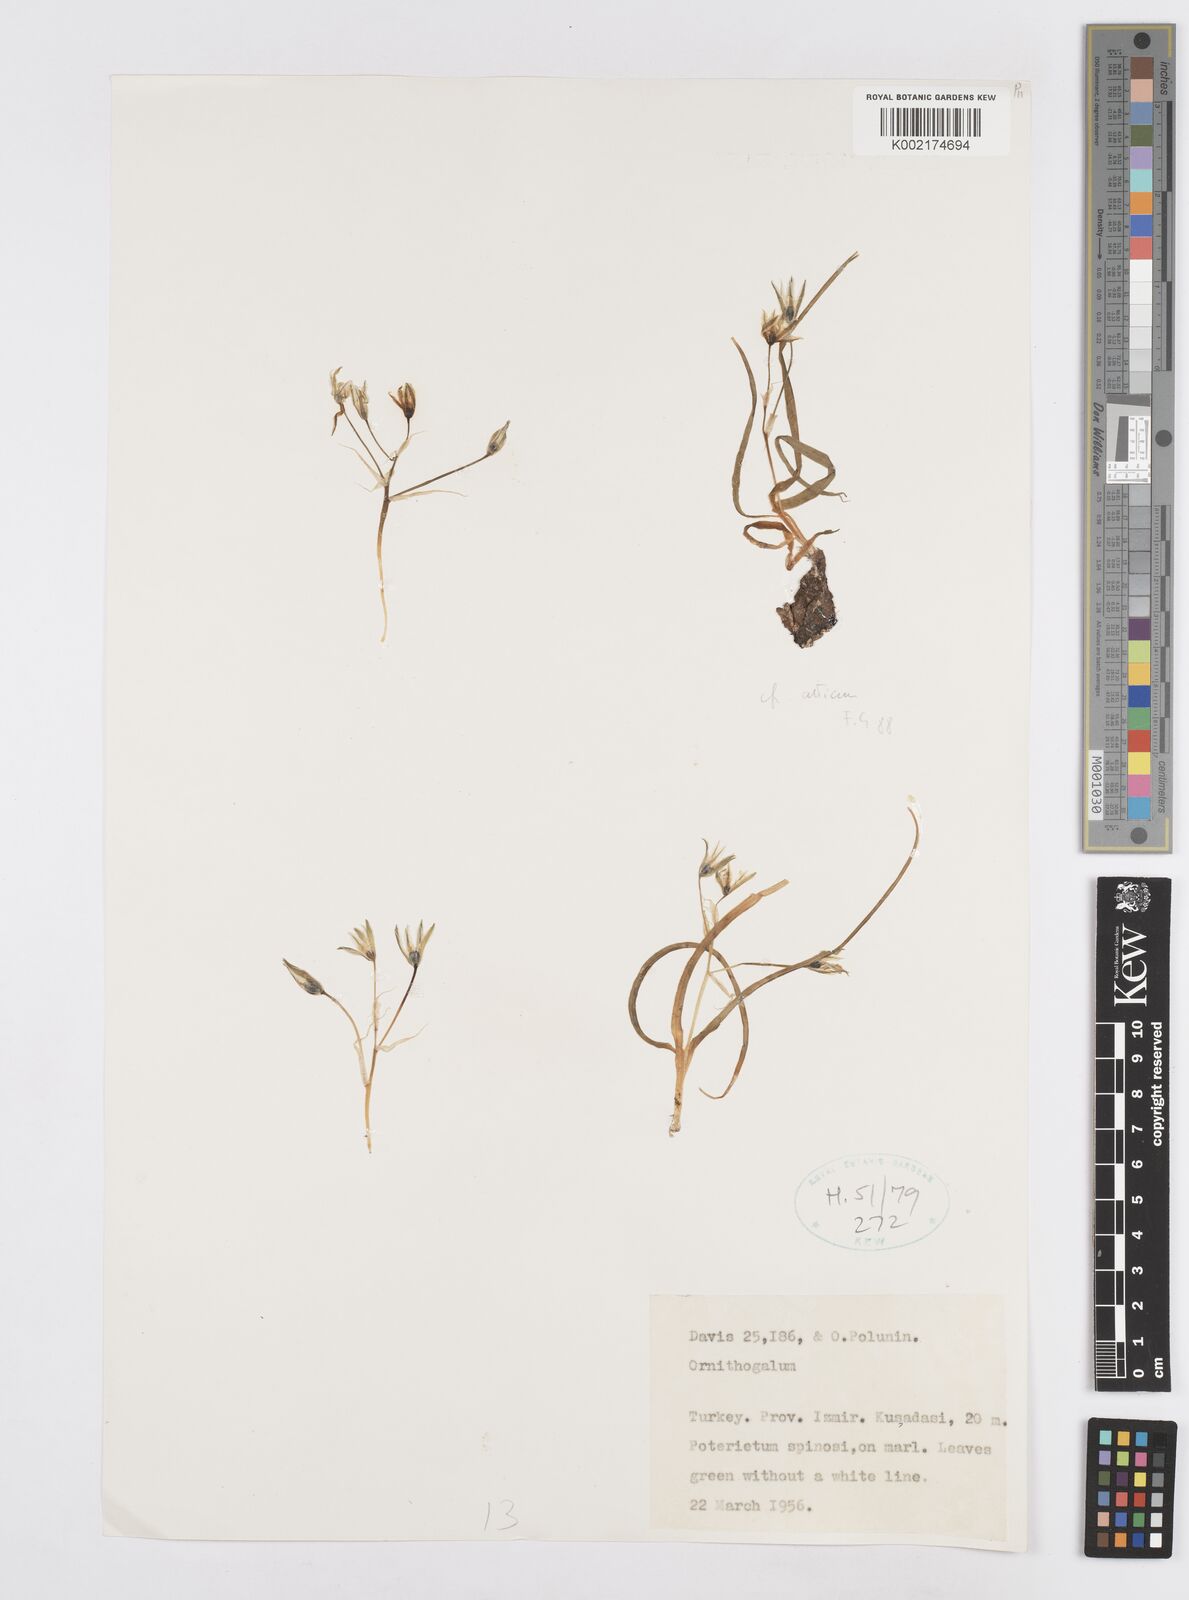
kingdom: Plantae
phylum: Tracheophyta
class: Liliopsida
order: Asparagales
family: Asparagaceae
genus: Ornithogalum
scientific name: Ornithogalum atticum
